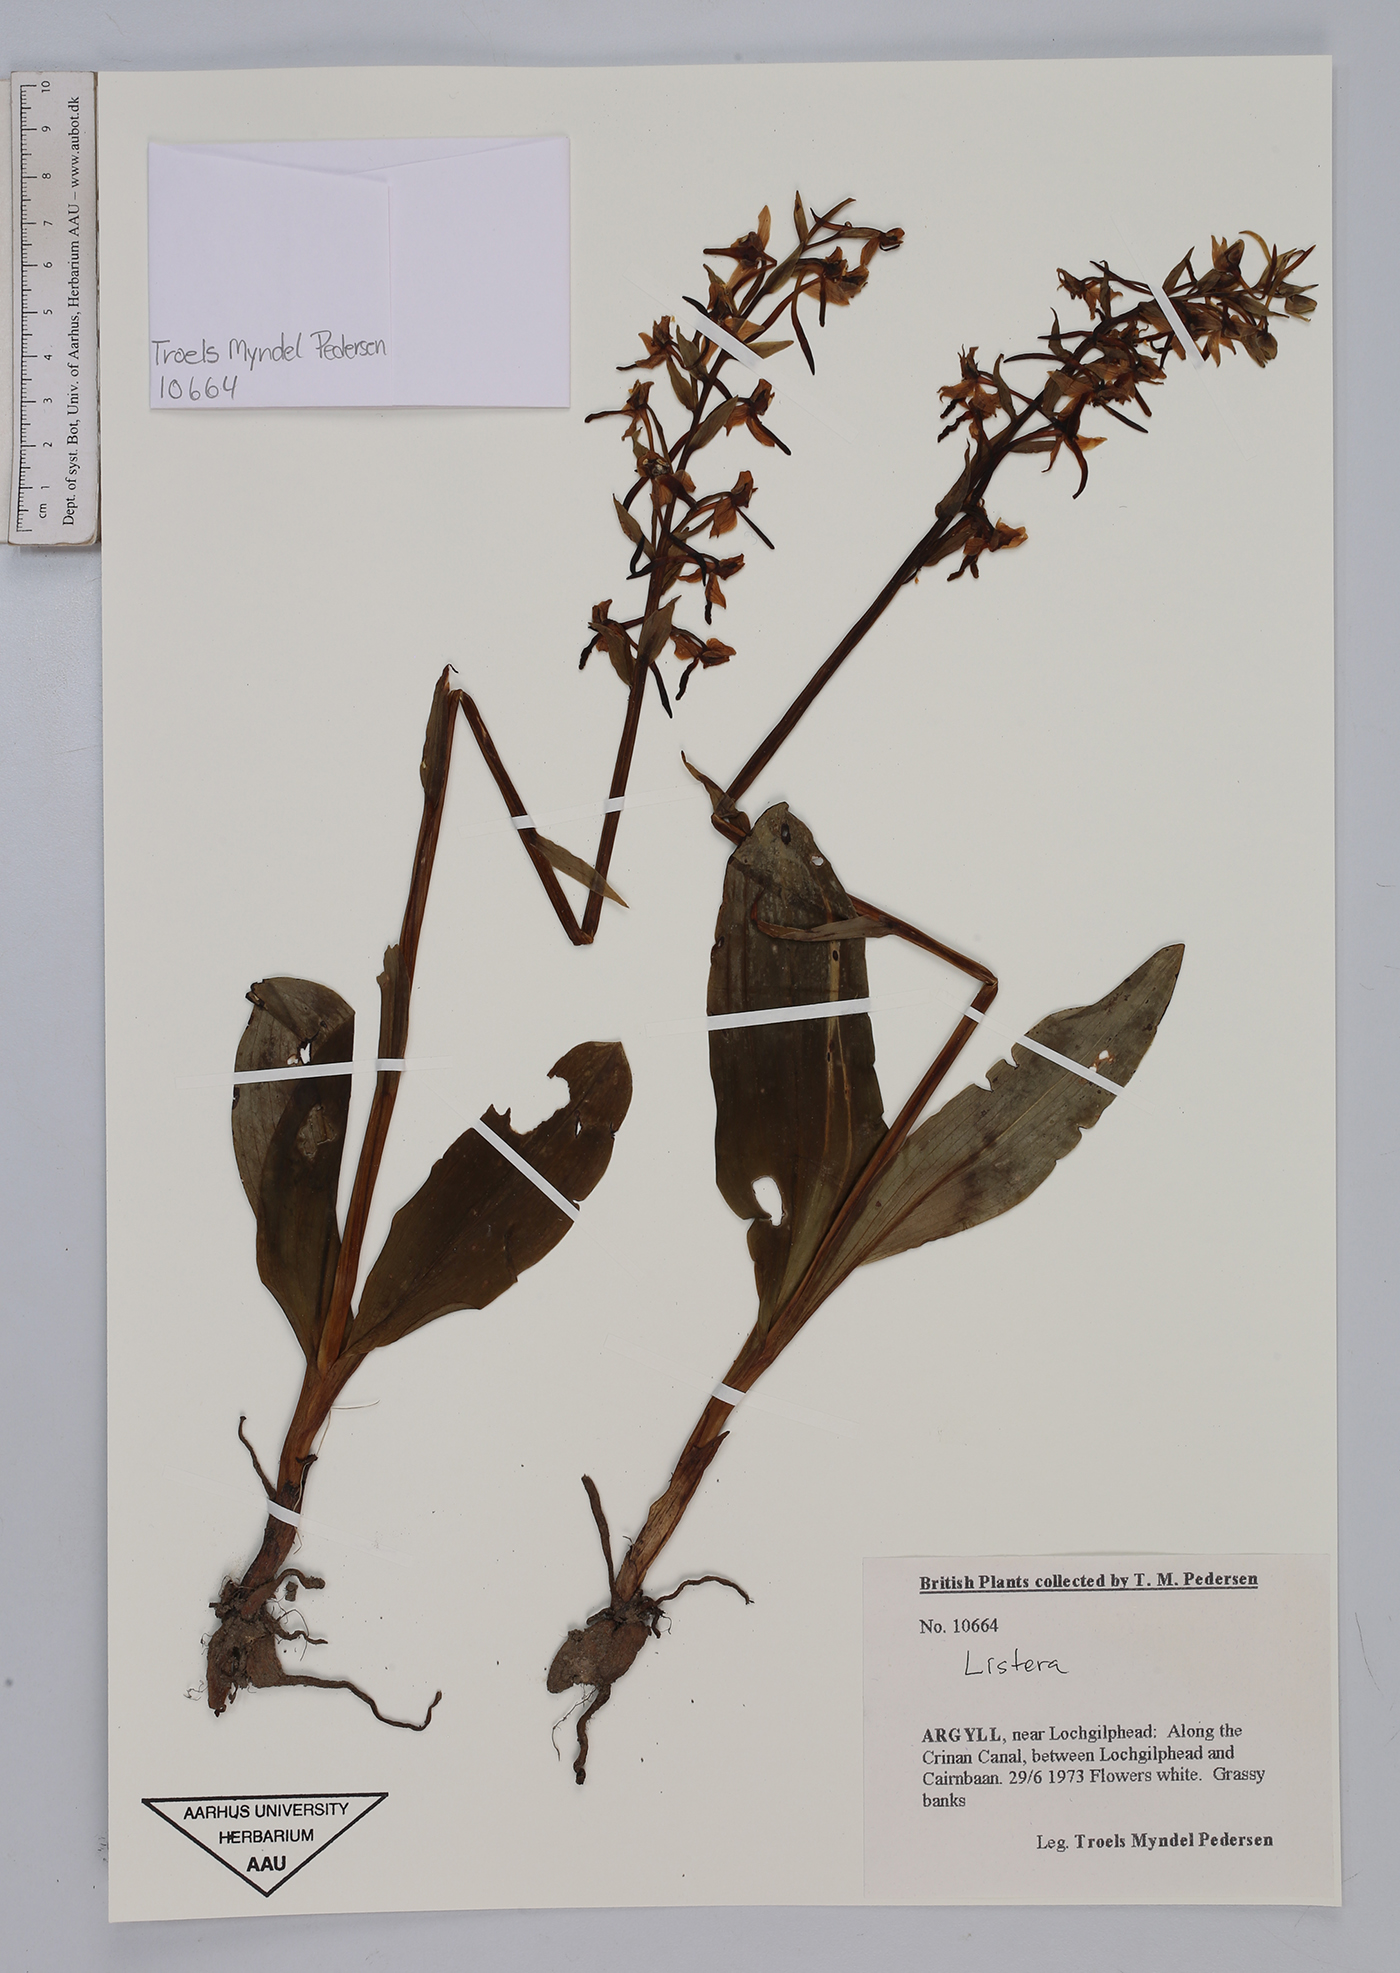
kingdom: Plantae
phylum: Tracheophyta
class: Liliopsida
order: Asparagales
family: Orchidaceae
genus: Neottia
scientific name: Neottia
